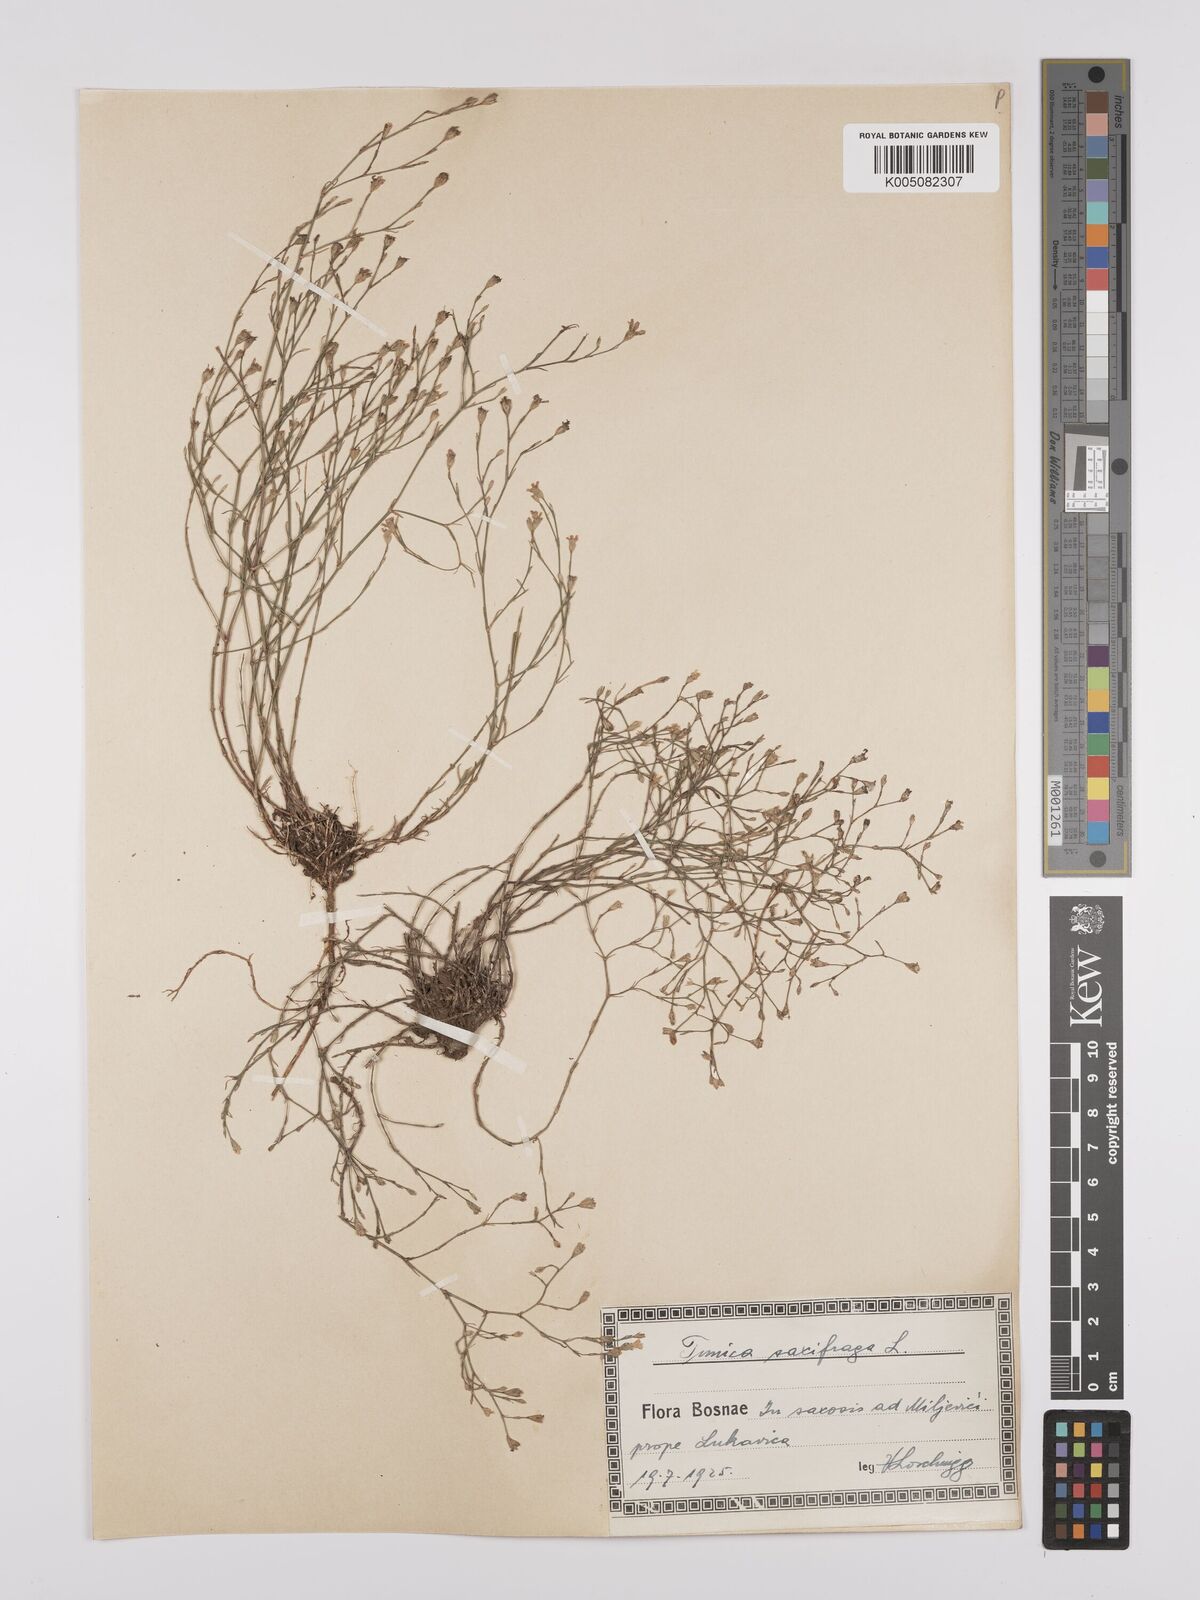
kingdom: Plantae
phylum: Tracheophyta
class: Magnoliopsida
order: Caryophyllales
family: Caryophyllaceae
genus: Petrorhagia
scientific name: Petrorhagia saxifraga
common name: Tunicflower
